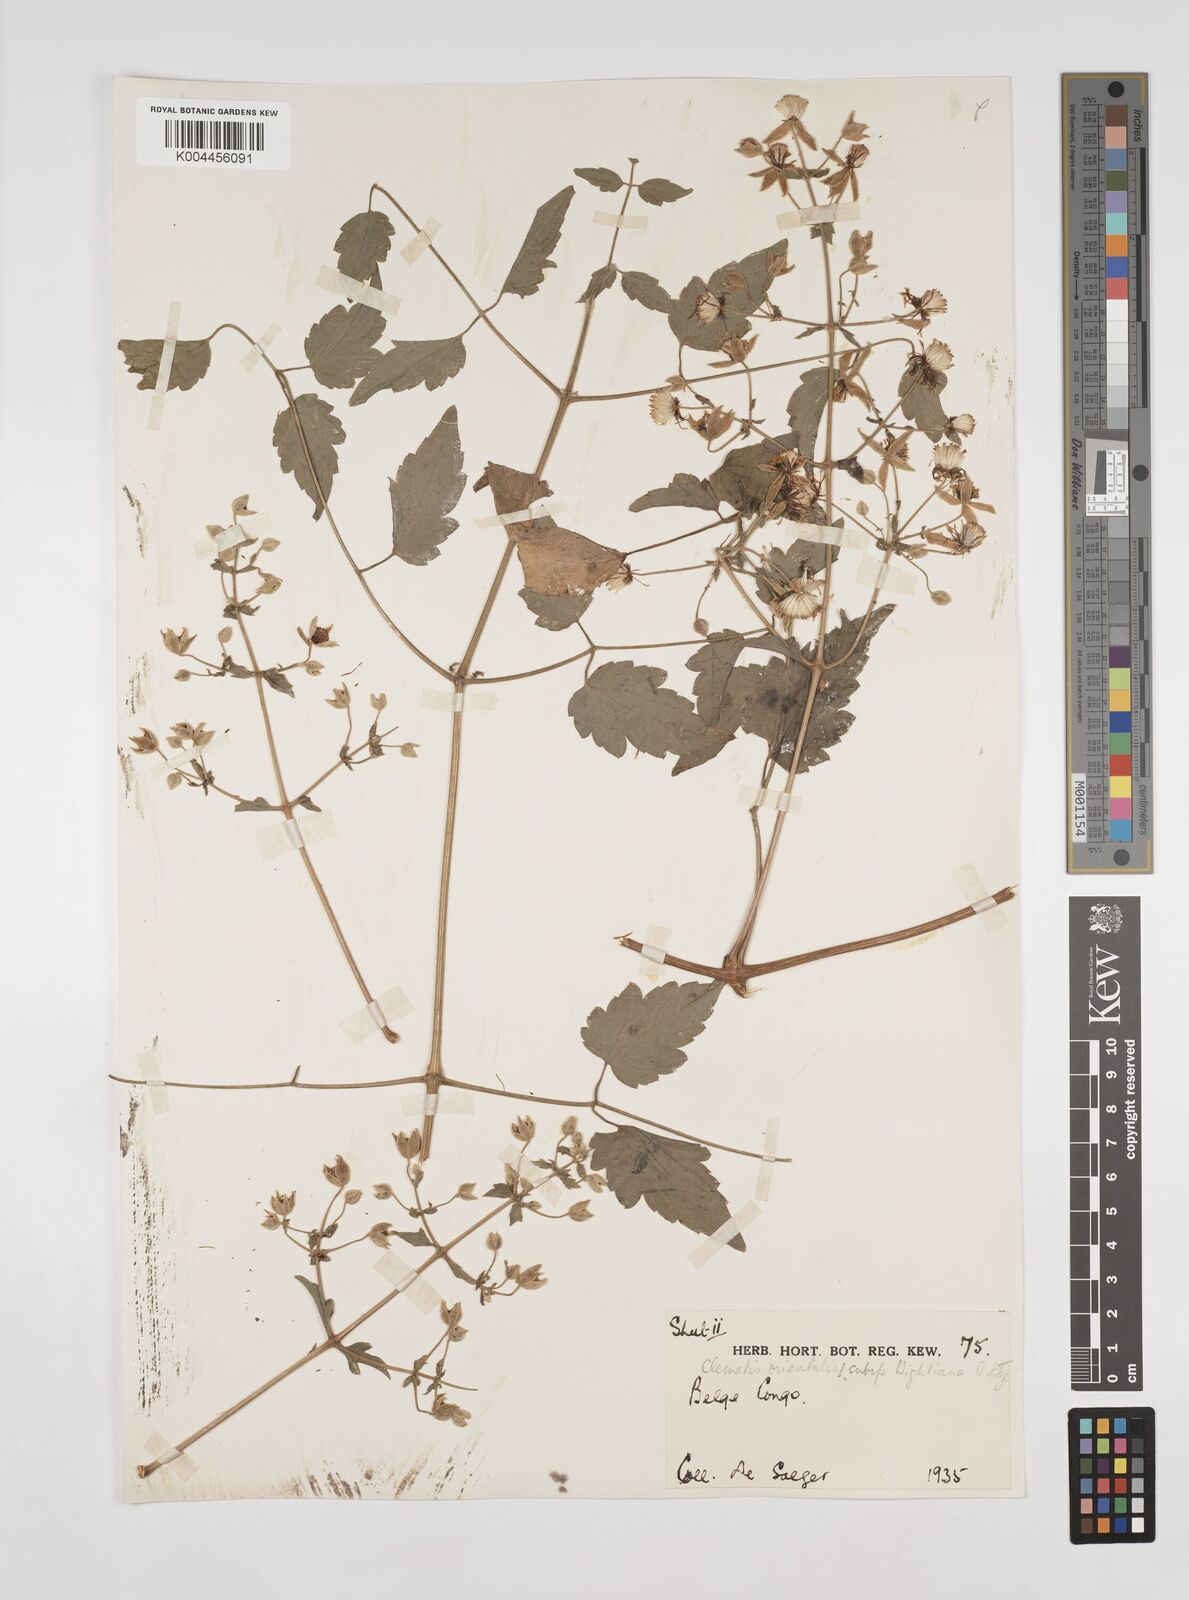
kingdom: Plantae
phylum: Tracheophyta
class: Magnoliopsida
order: Ranunculales
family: Ranunculaceae
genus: Clematis
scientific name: Clematis orientalis
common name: Oriental virgin's-bower
